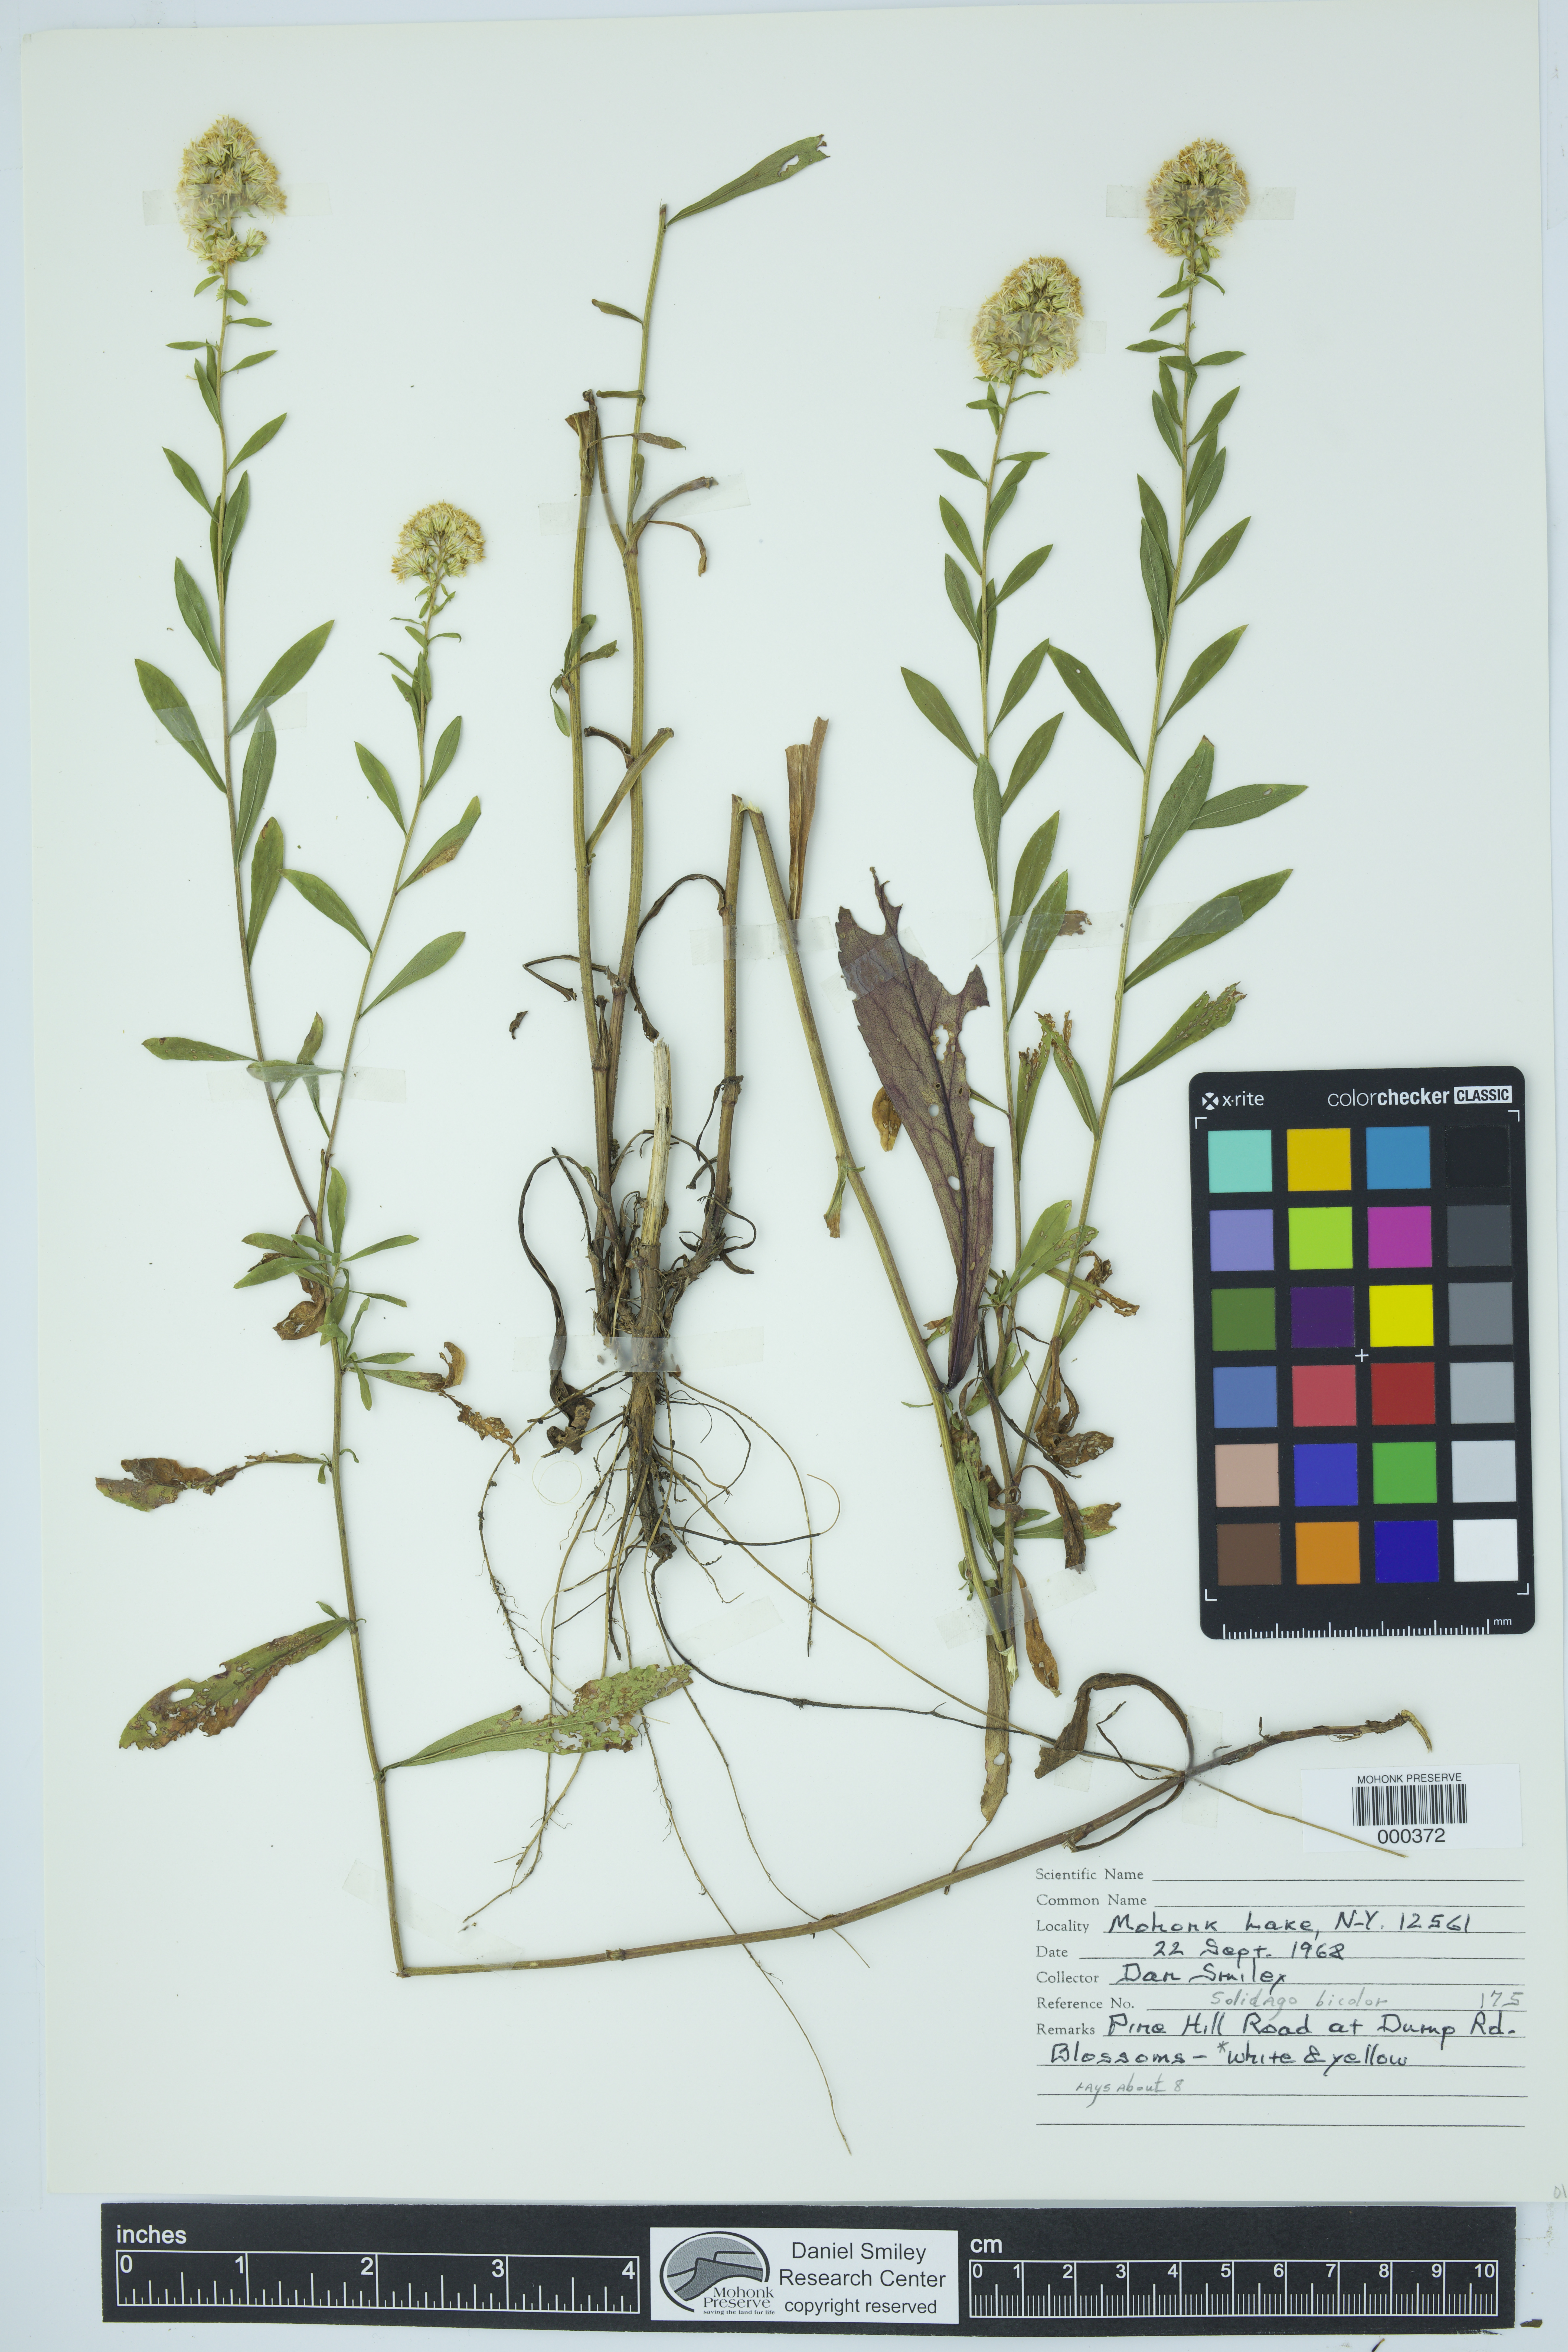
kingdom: Plantae
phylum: Tracheophyta
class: Magnoliopsida
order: Asterales
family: Asteraceae
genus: Solidago
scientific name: Solidago bicolor
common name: Silverrod
